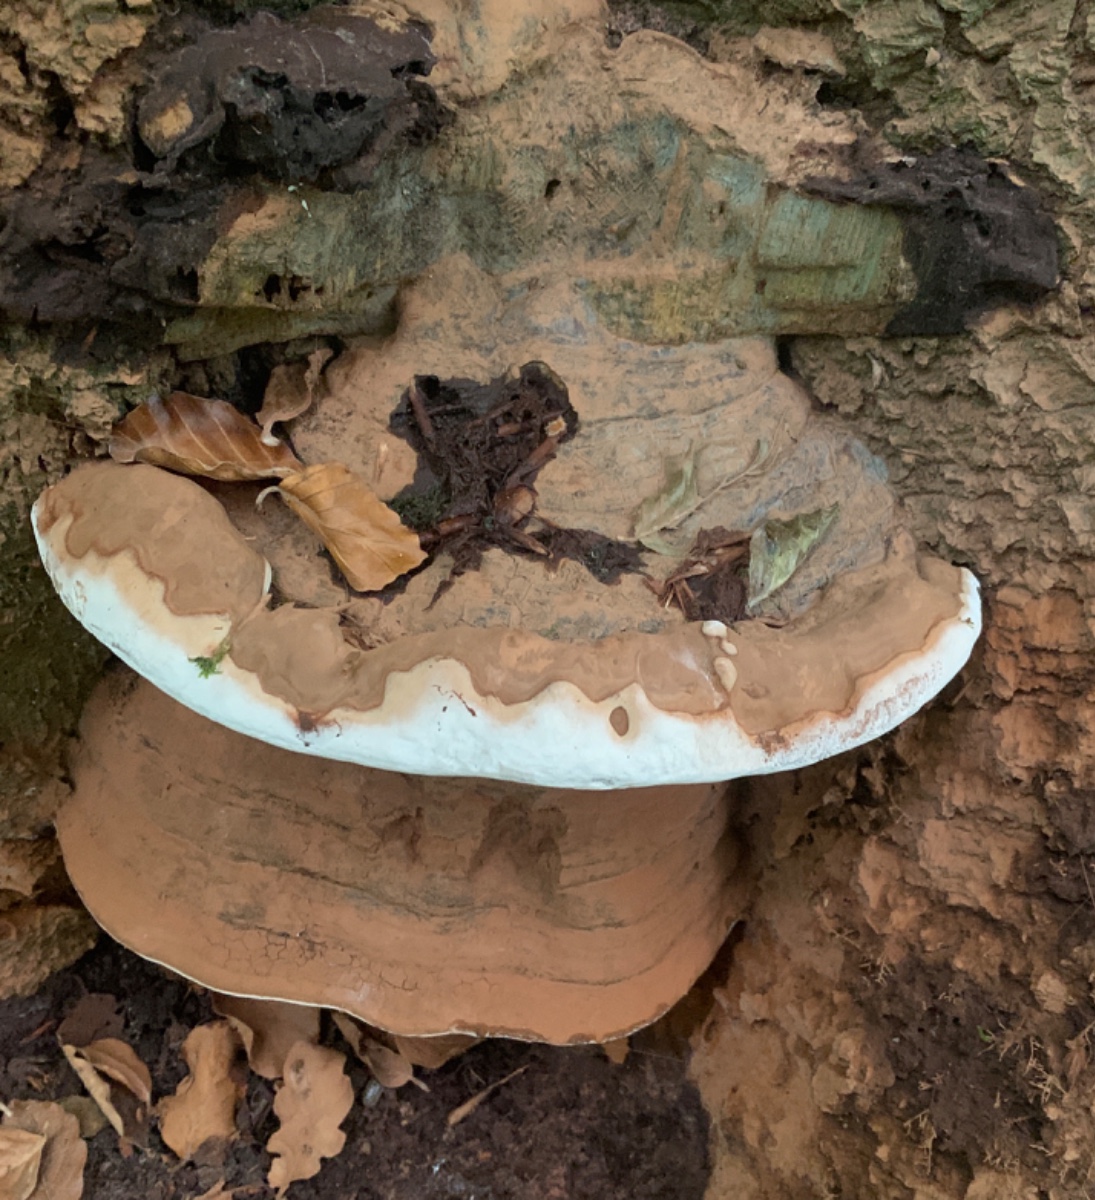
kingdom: Fungi
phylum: Basidiomycota
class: Agaricomycetes
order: Polyporales
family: Polyporaceae
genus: Ganoderma
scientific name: Ganoderma pfeifferi
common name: kobberrød lakporesvamp
